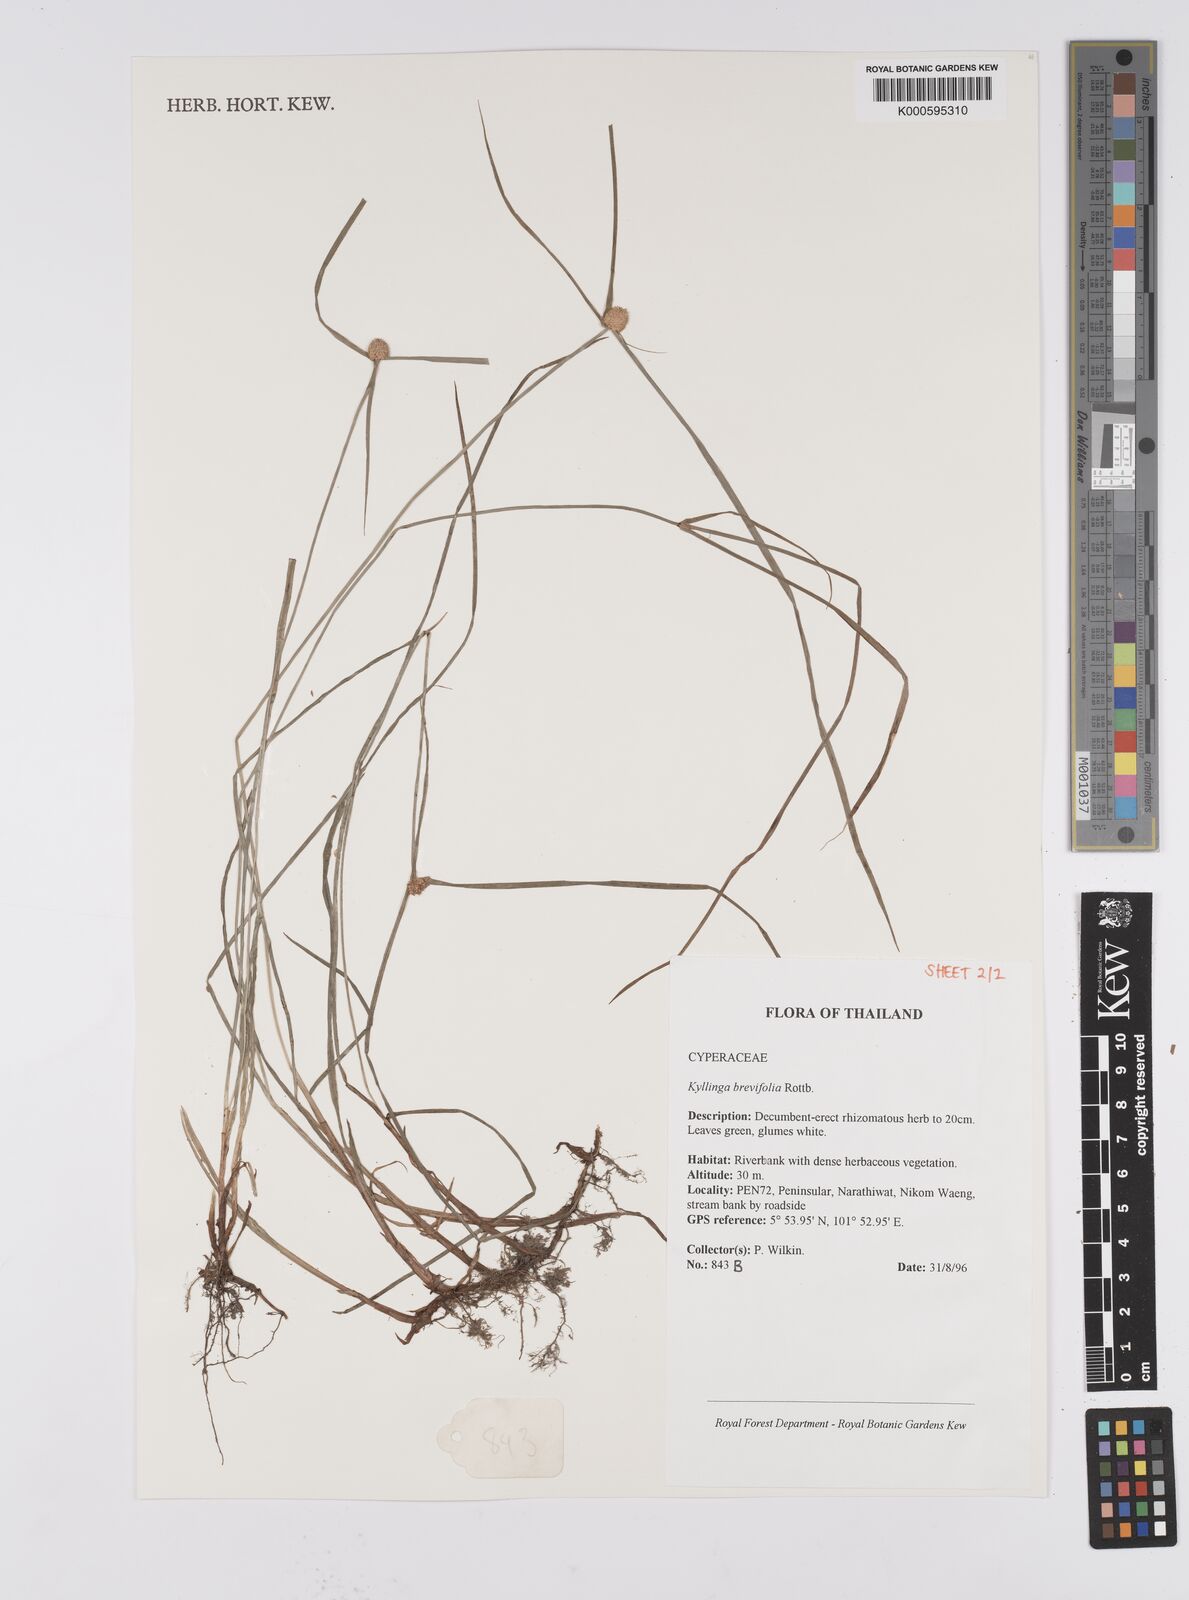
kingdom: Plantae
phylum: Tracheophyta
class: Liliopsida
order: Poales
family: Cyperaceae
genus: Cyperus
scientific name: Cyperus brevifolius
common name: Globe kyllinga
